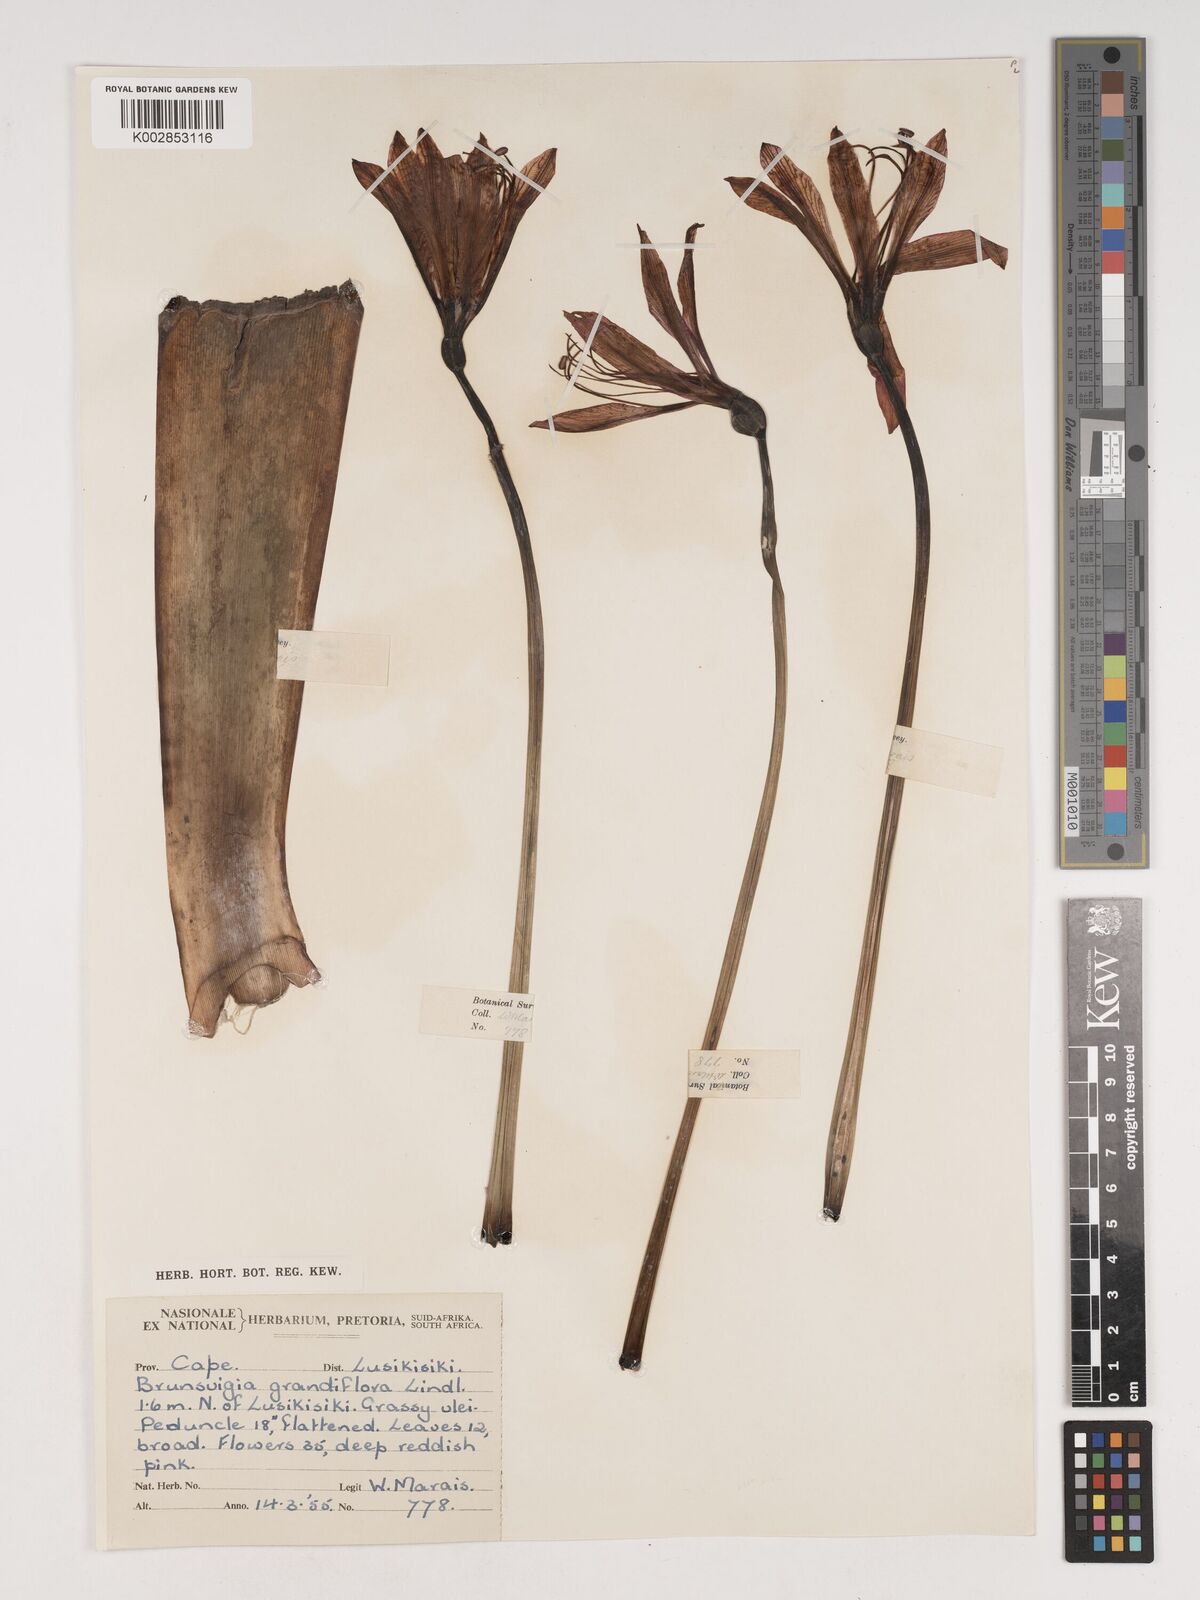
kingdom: Plantae
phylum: Tracheophyta
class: Liliopsida
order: Asparagales
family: Amaryllidaceae
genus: Brunsvigia
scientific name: Brunsvigia grandiflora
